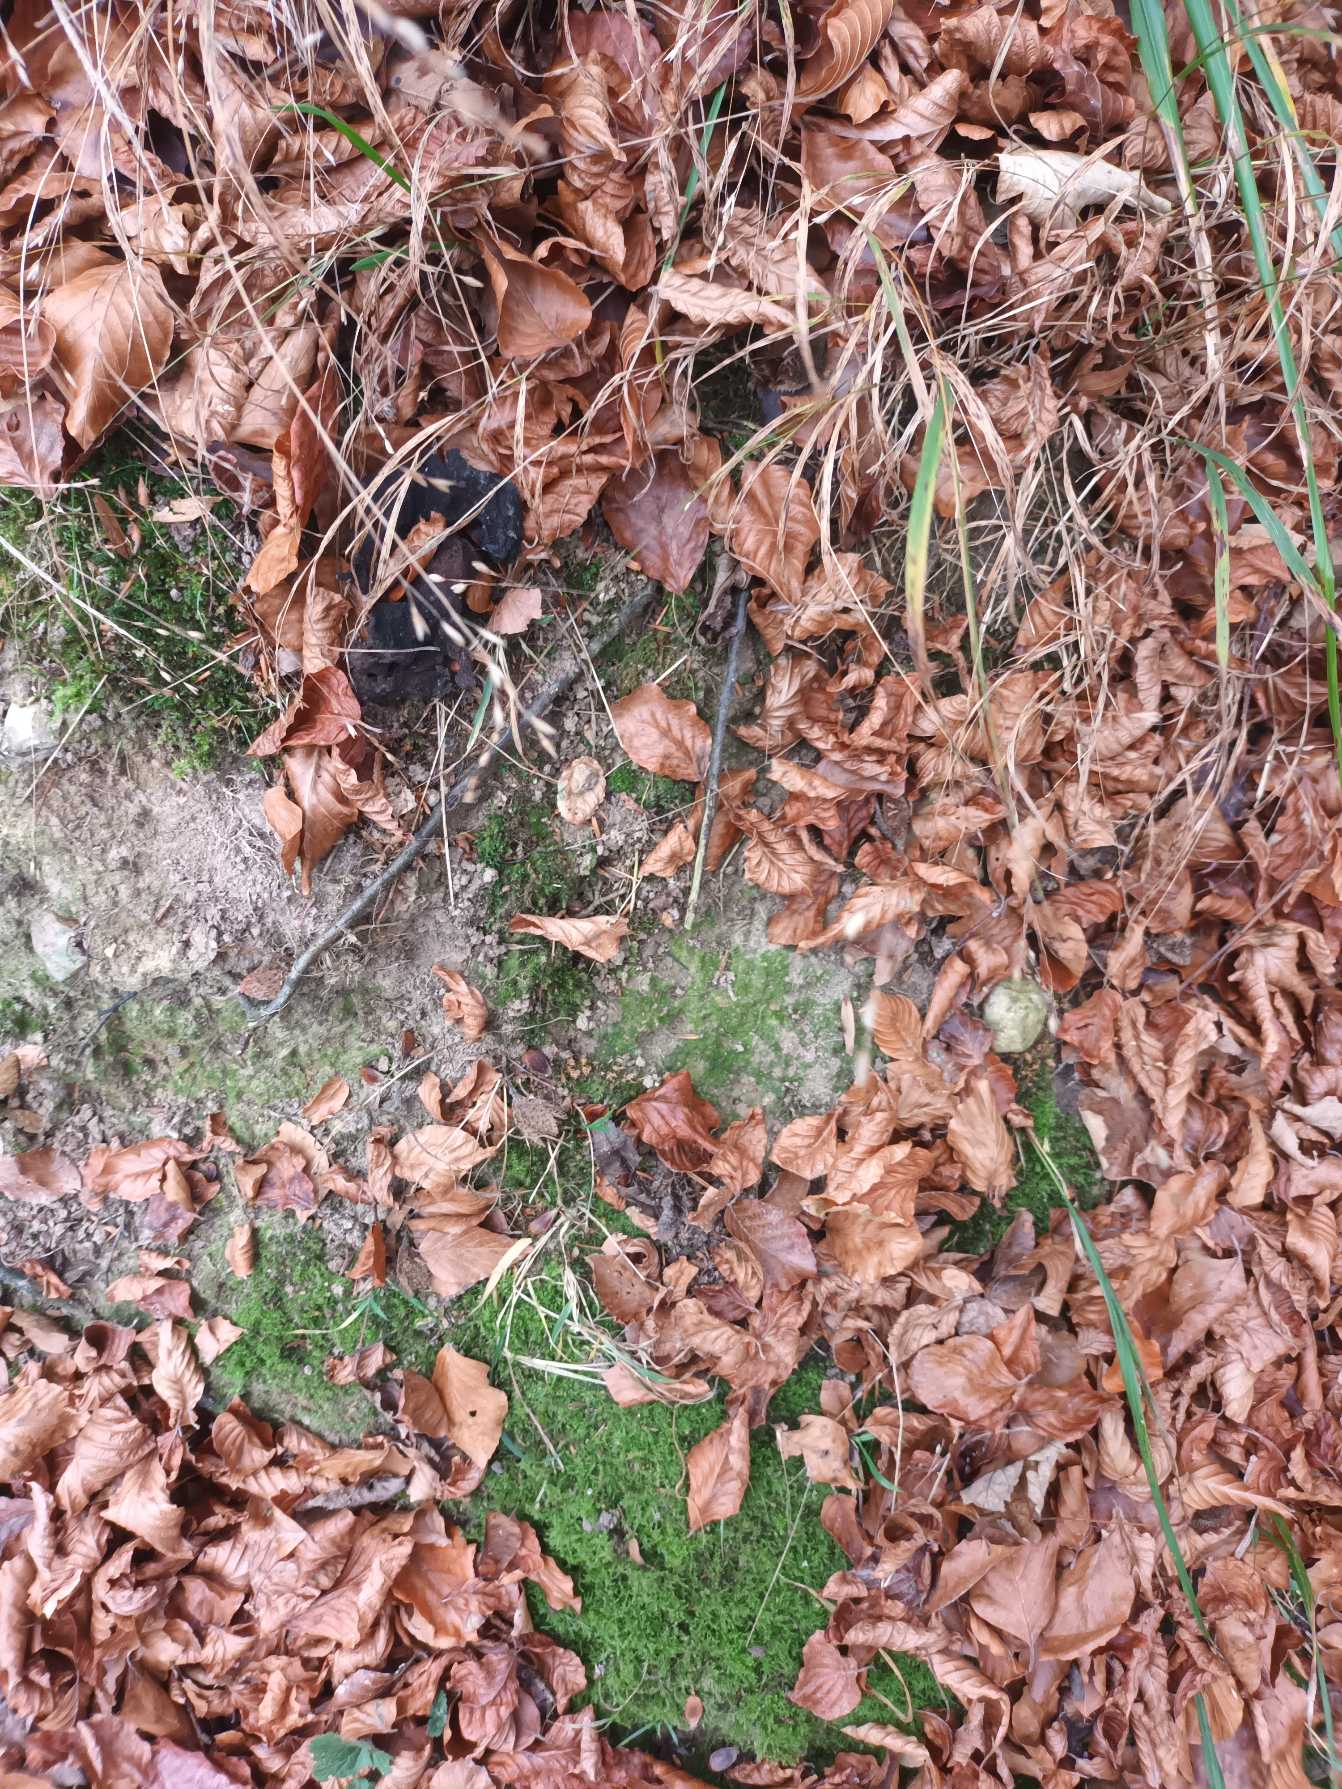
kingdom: Plantae
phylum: Tracheophyta
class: Liliopsida
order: Poales
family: Poaceae
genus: Melica
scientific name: Melica uniflora
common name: Enblomstret flitteraks
